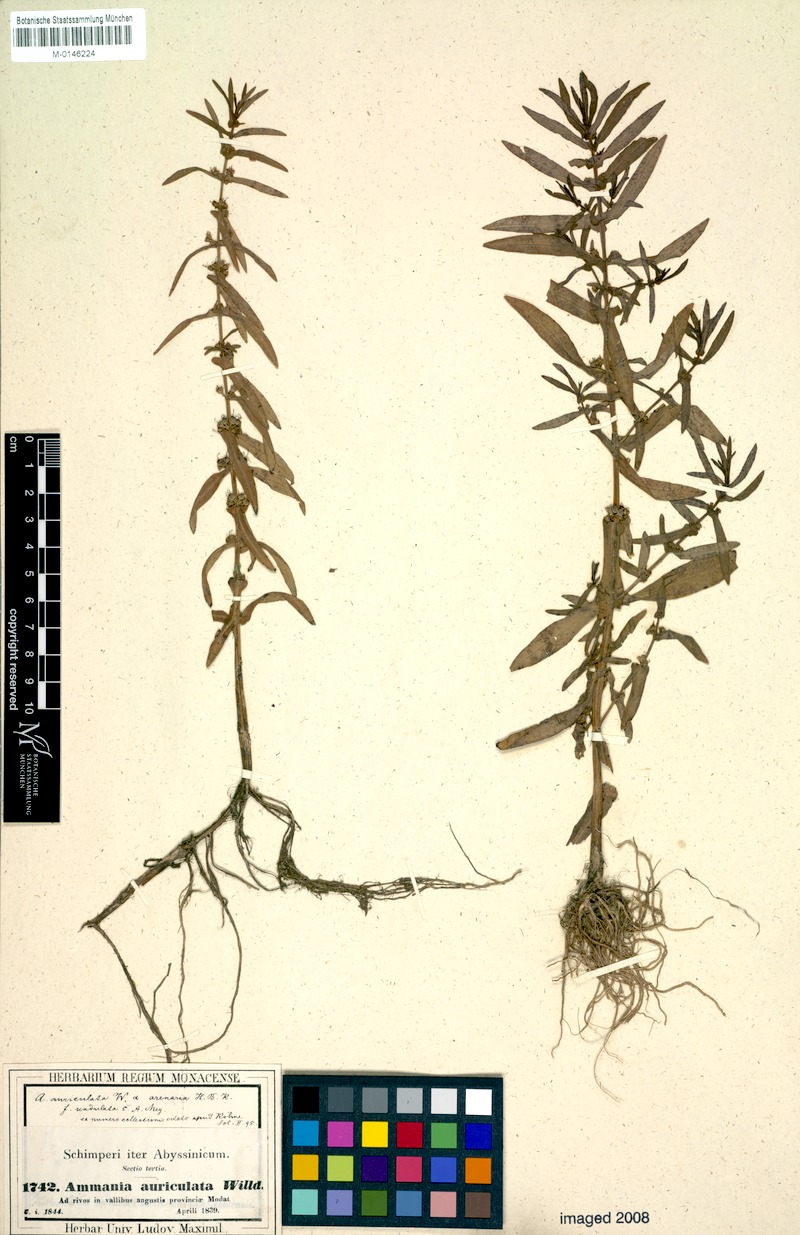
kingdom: Plantae
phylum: Tracheophyta
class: Magnoliopsida
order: Myrtales
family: Lythraceae
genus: Ammannia
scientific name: Ammannia auriculata
